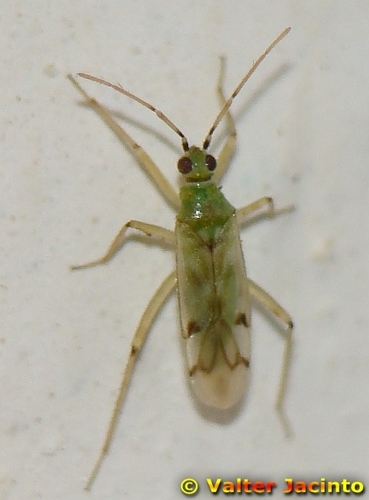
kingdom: Animalia
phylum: Arthropoda
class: Insecta
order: Hemiptera
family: Miridae
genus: Nesidiocoris
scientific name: Nesidiocoris tenuis
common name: Plant bug
